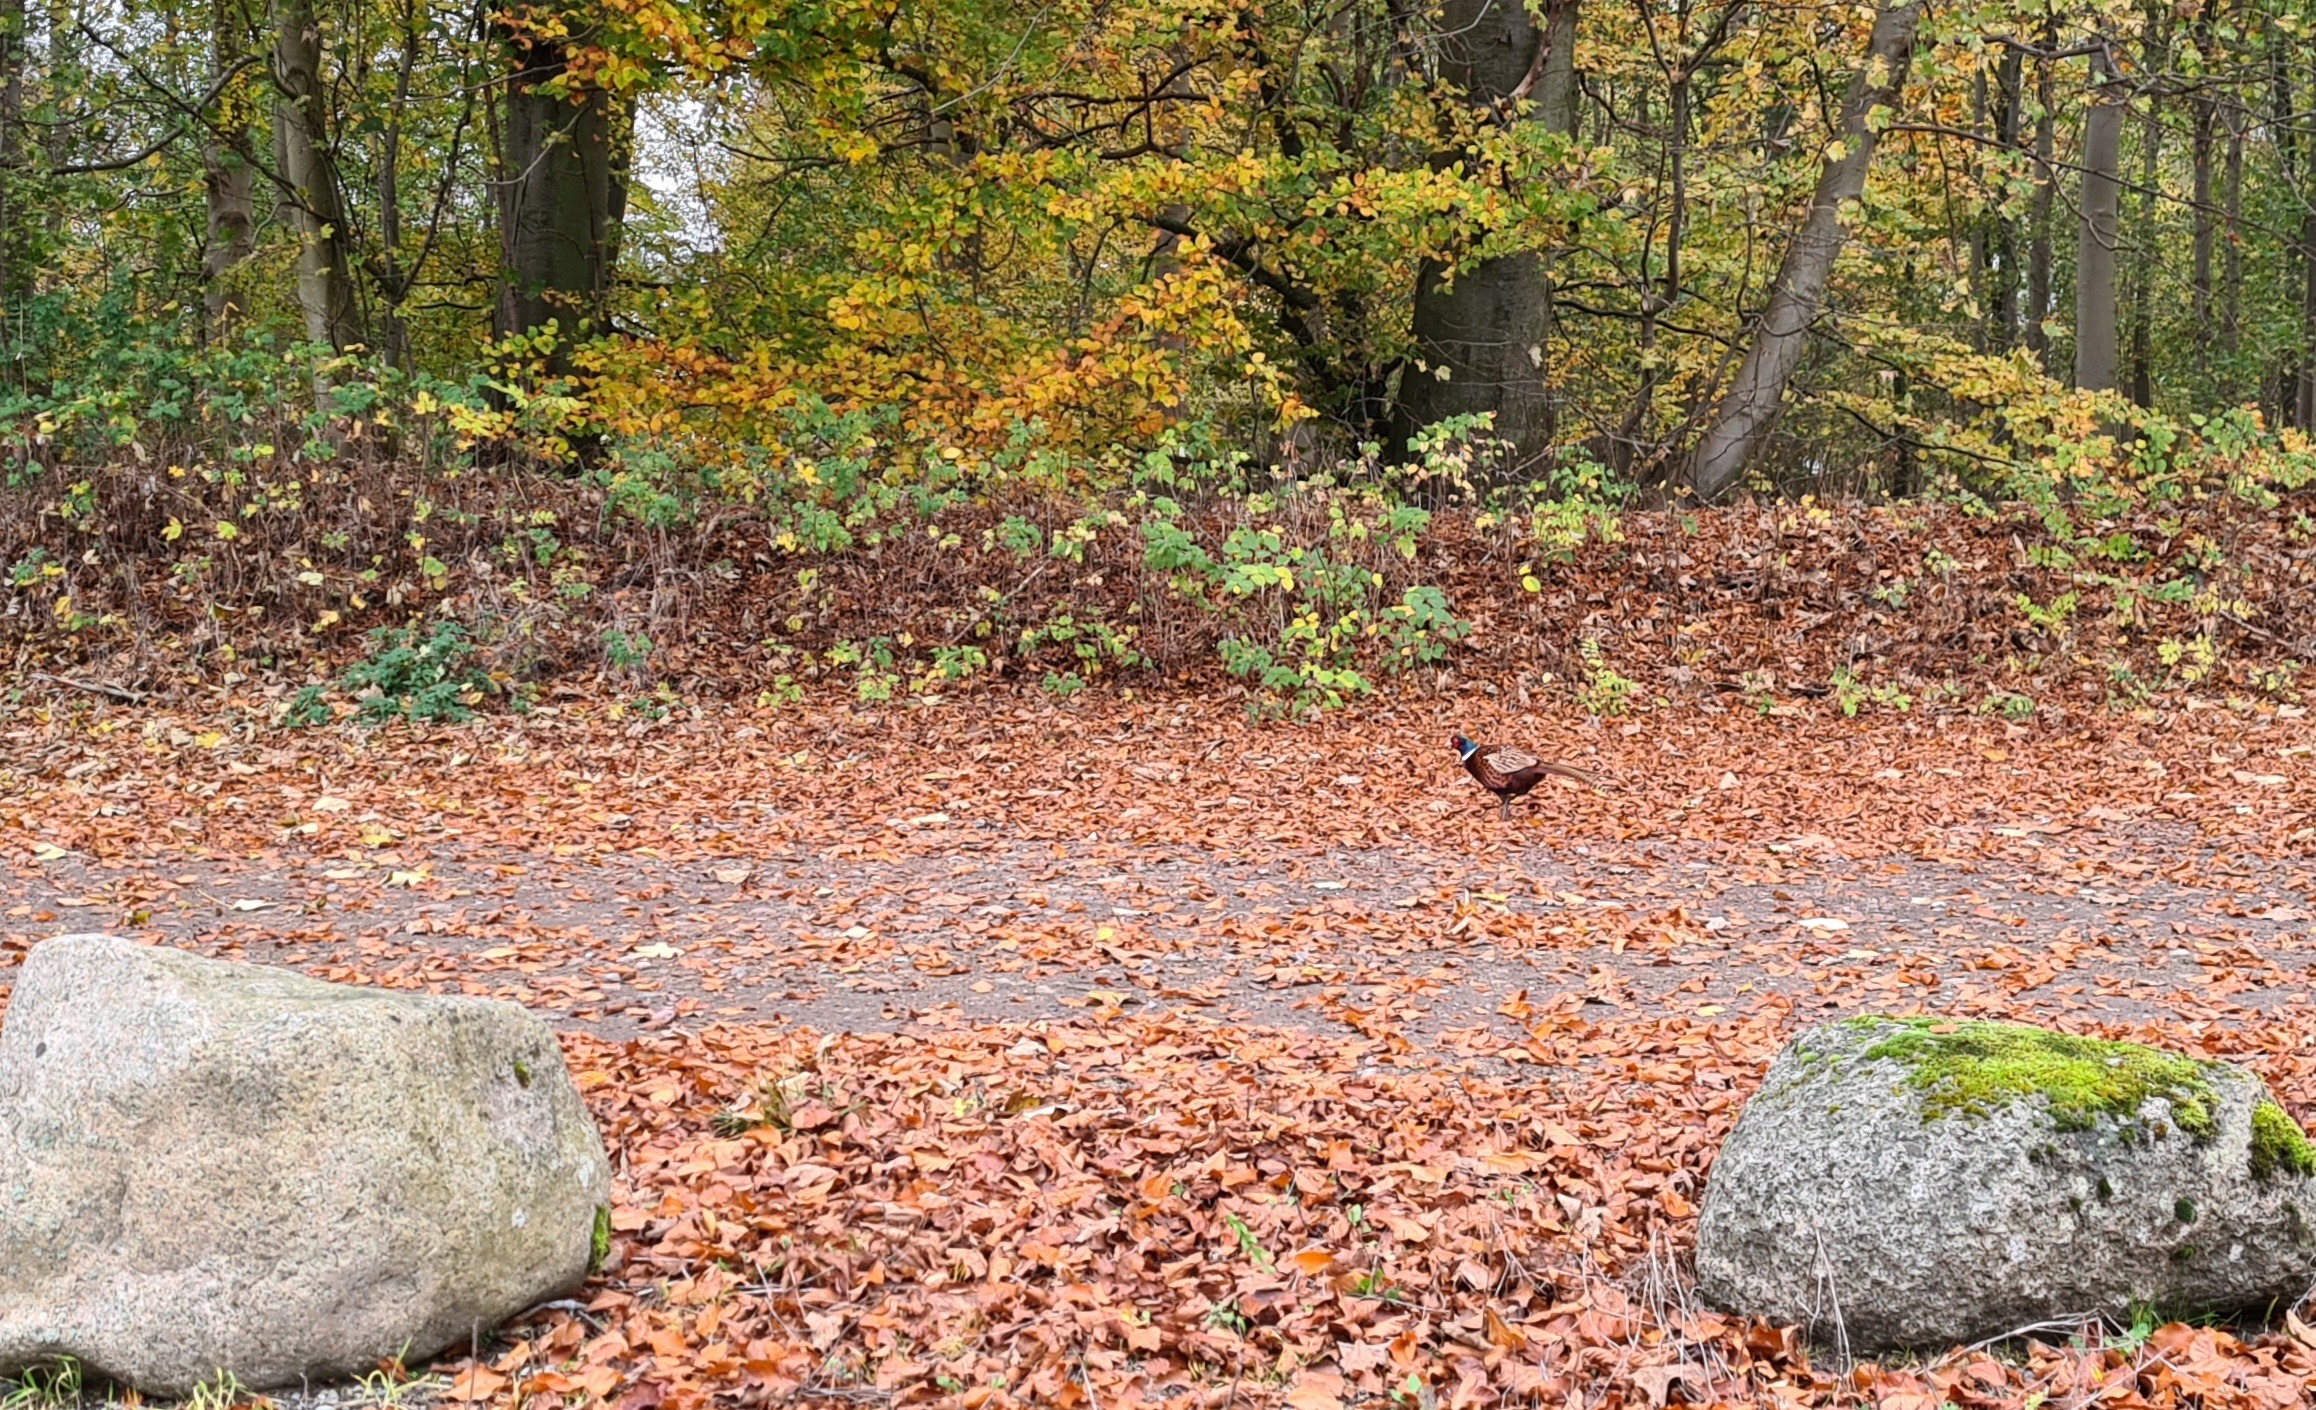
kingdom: Animalia
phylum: Chordata
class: Aves
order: Galliformes
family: Phasianidae
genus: Phasianus
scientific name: Phasianus colchicus
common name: Fasan
